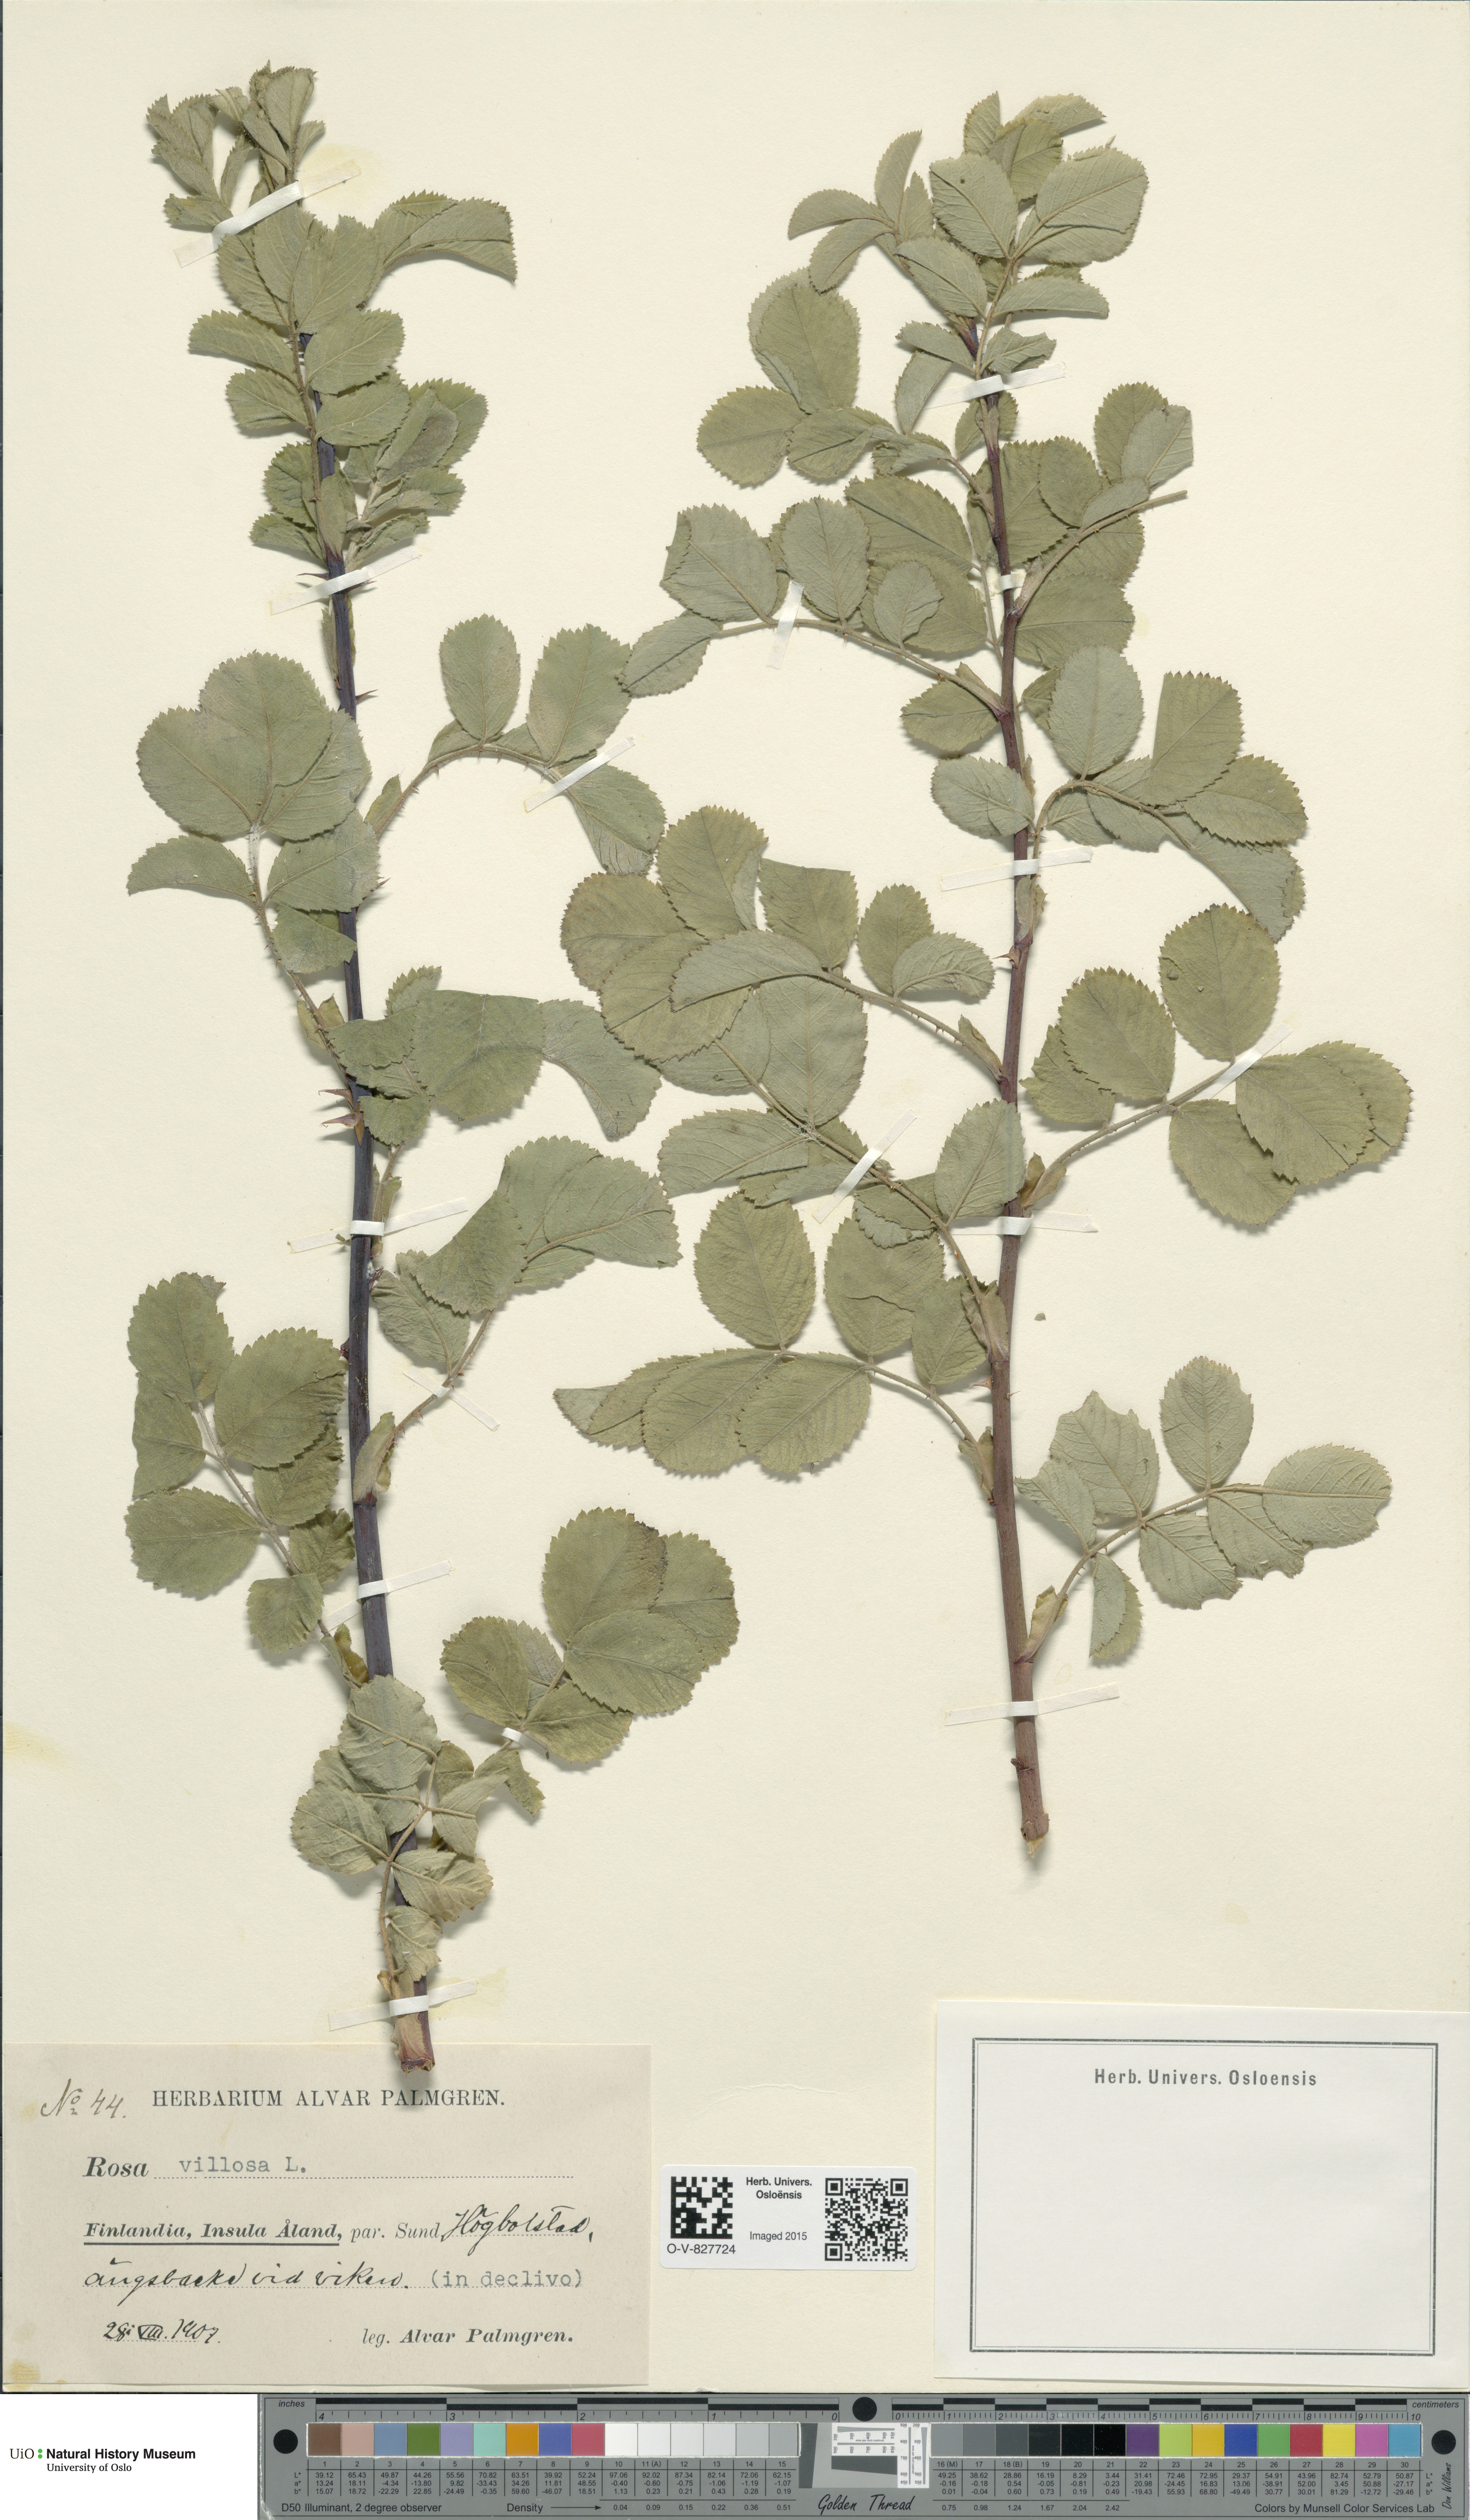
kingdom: Plantae
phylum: Tracheophyta
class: Magnoliopsida
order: Rosales
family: Rosaceae
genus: Rosa
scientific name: Rosa villosa
